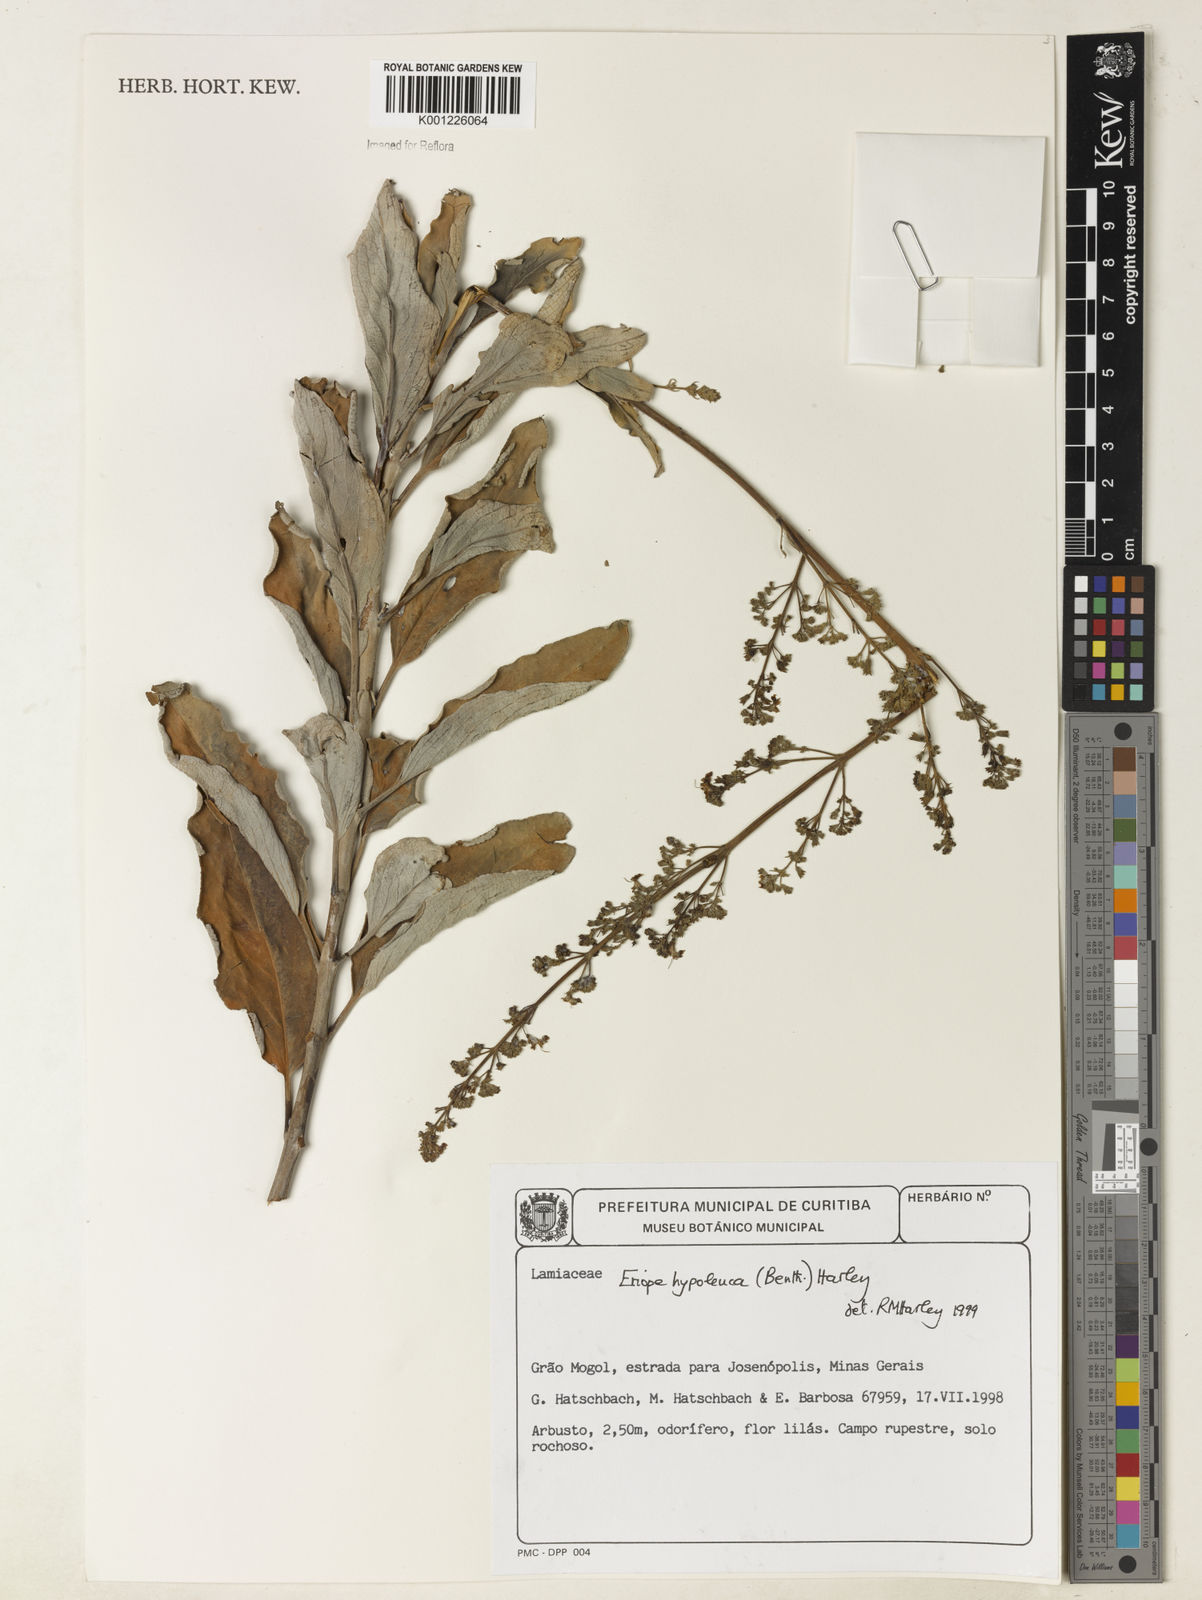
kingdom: Plantae
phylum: Tracheophyta
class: Magnoliopsida
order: Lamiales
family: Lamiaceae
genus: Eriope
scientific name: Eriope hypoleuca
